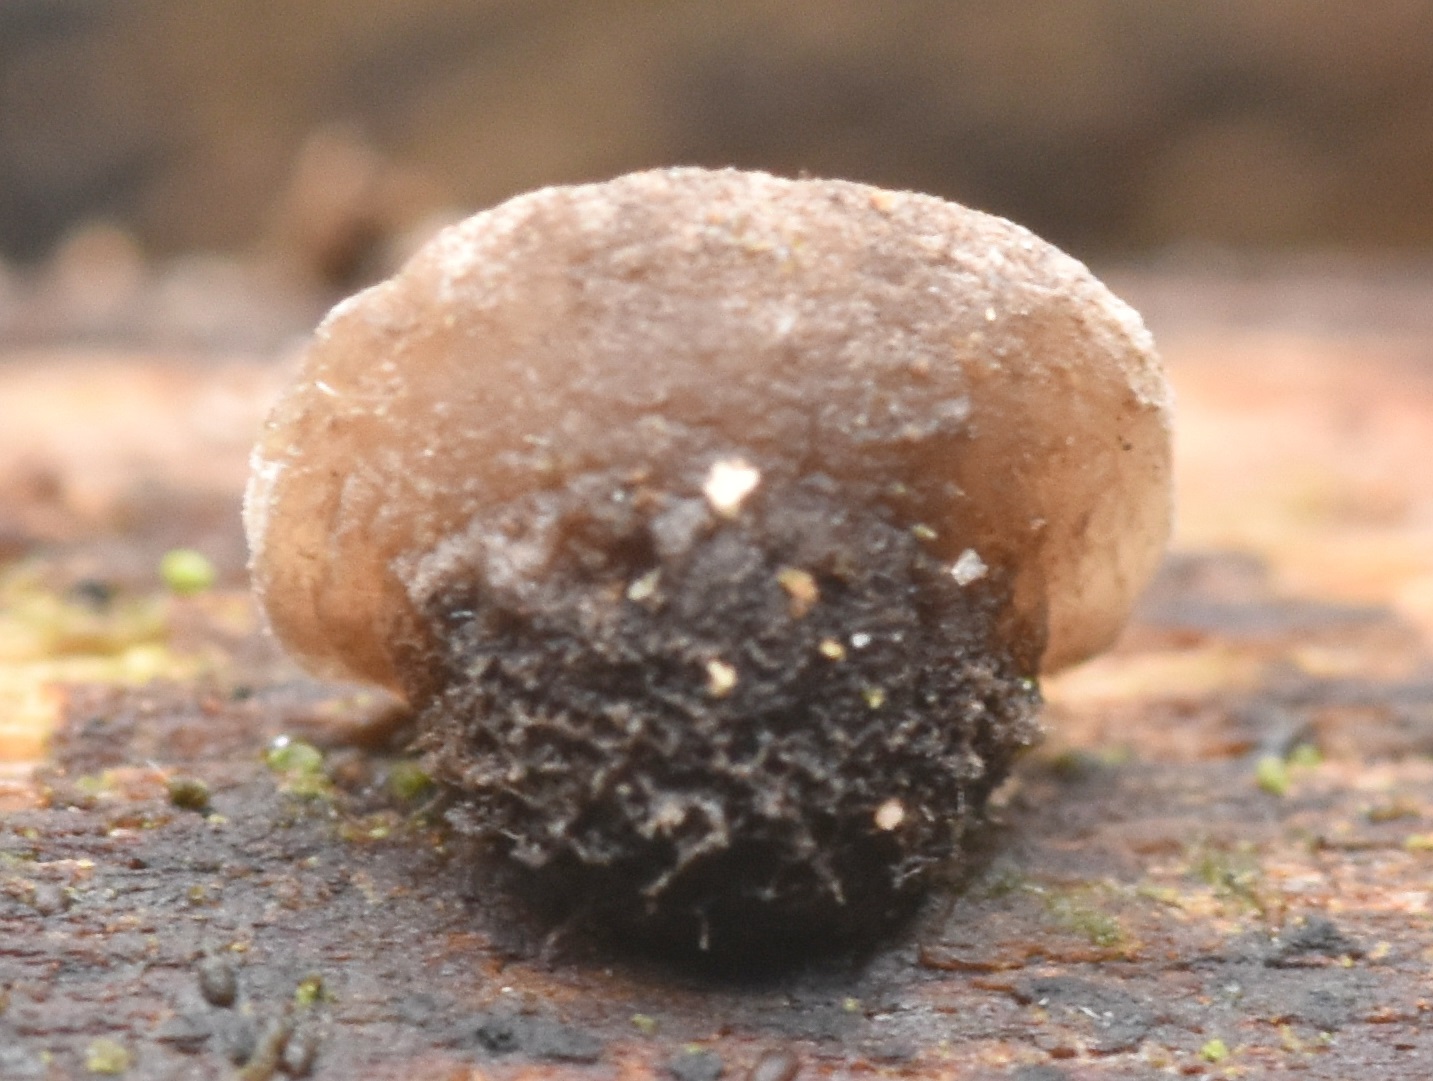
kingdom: Fungi
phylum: Basidiomycota
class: Agaricomycetes
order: Agaricales
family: Pleurotaceae
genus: Resupinatus
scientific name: Resupinatus trichotis
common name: mørkfiltet barkhat
